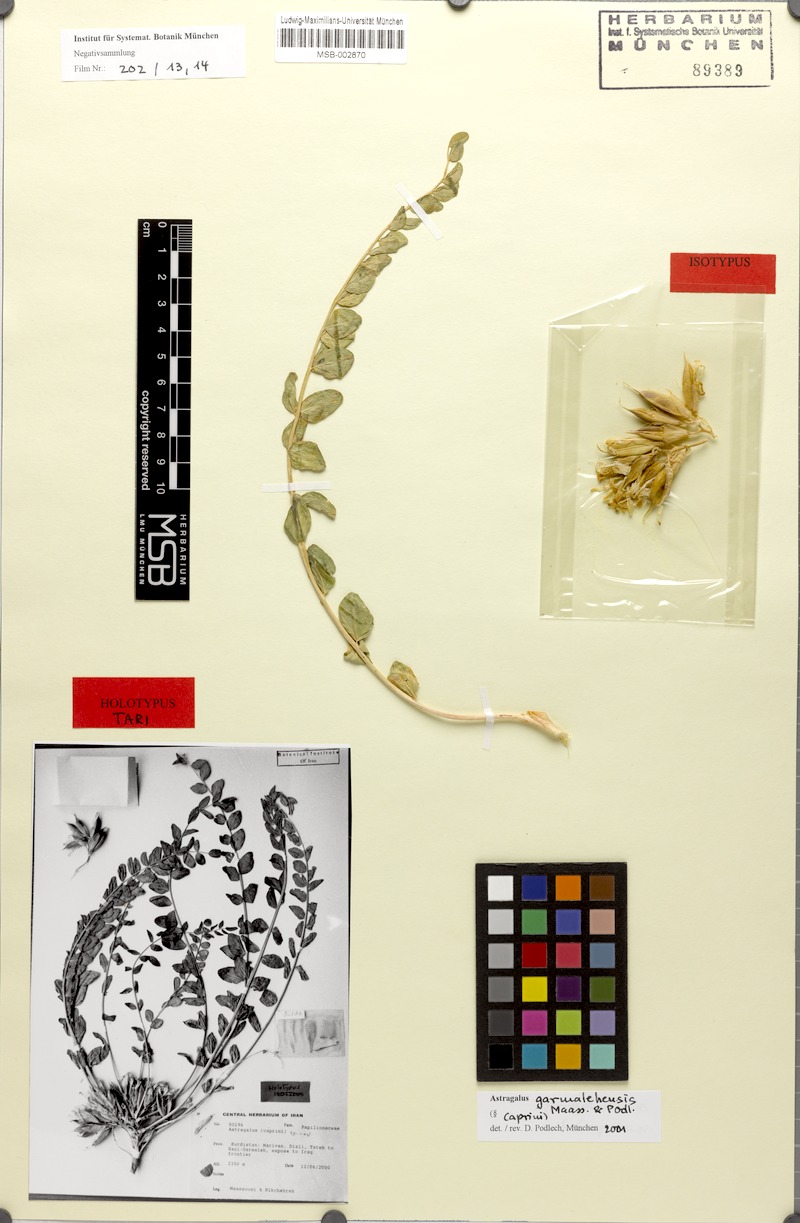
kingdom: Plantae
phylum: Tracheophyta
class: Magnoliopsida
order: Fabales
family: Fabaceae
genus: Astragalus
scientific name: Astragalus
